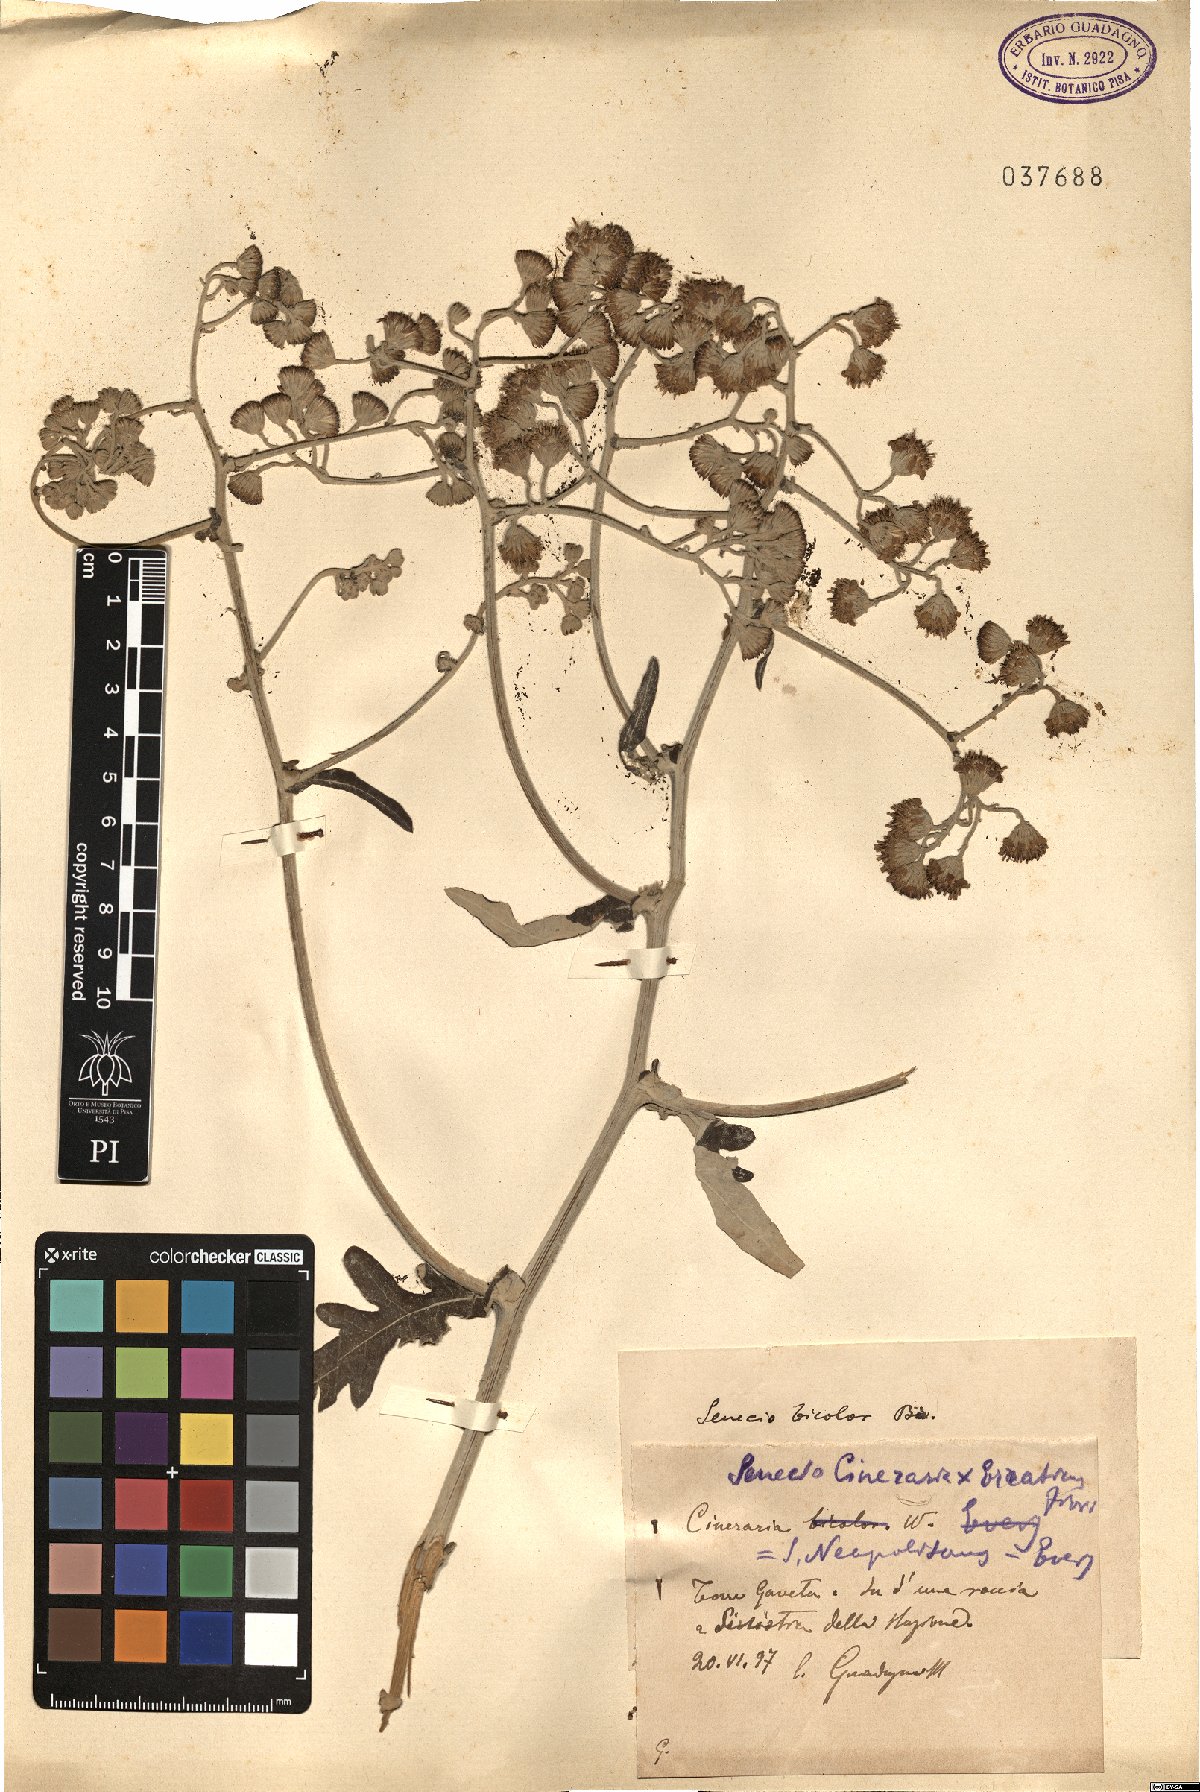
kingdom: Plantae
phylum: Tracheophyta
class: Magnoliopsida
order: Asterales
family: Asteraceae
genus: Jacobaea
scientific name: Jacobaea maritima
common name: Silver ragwort
